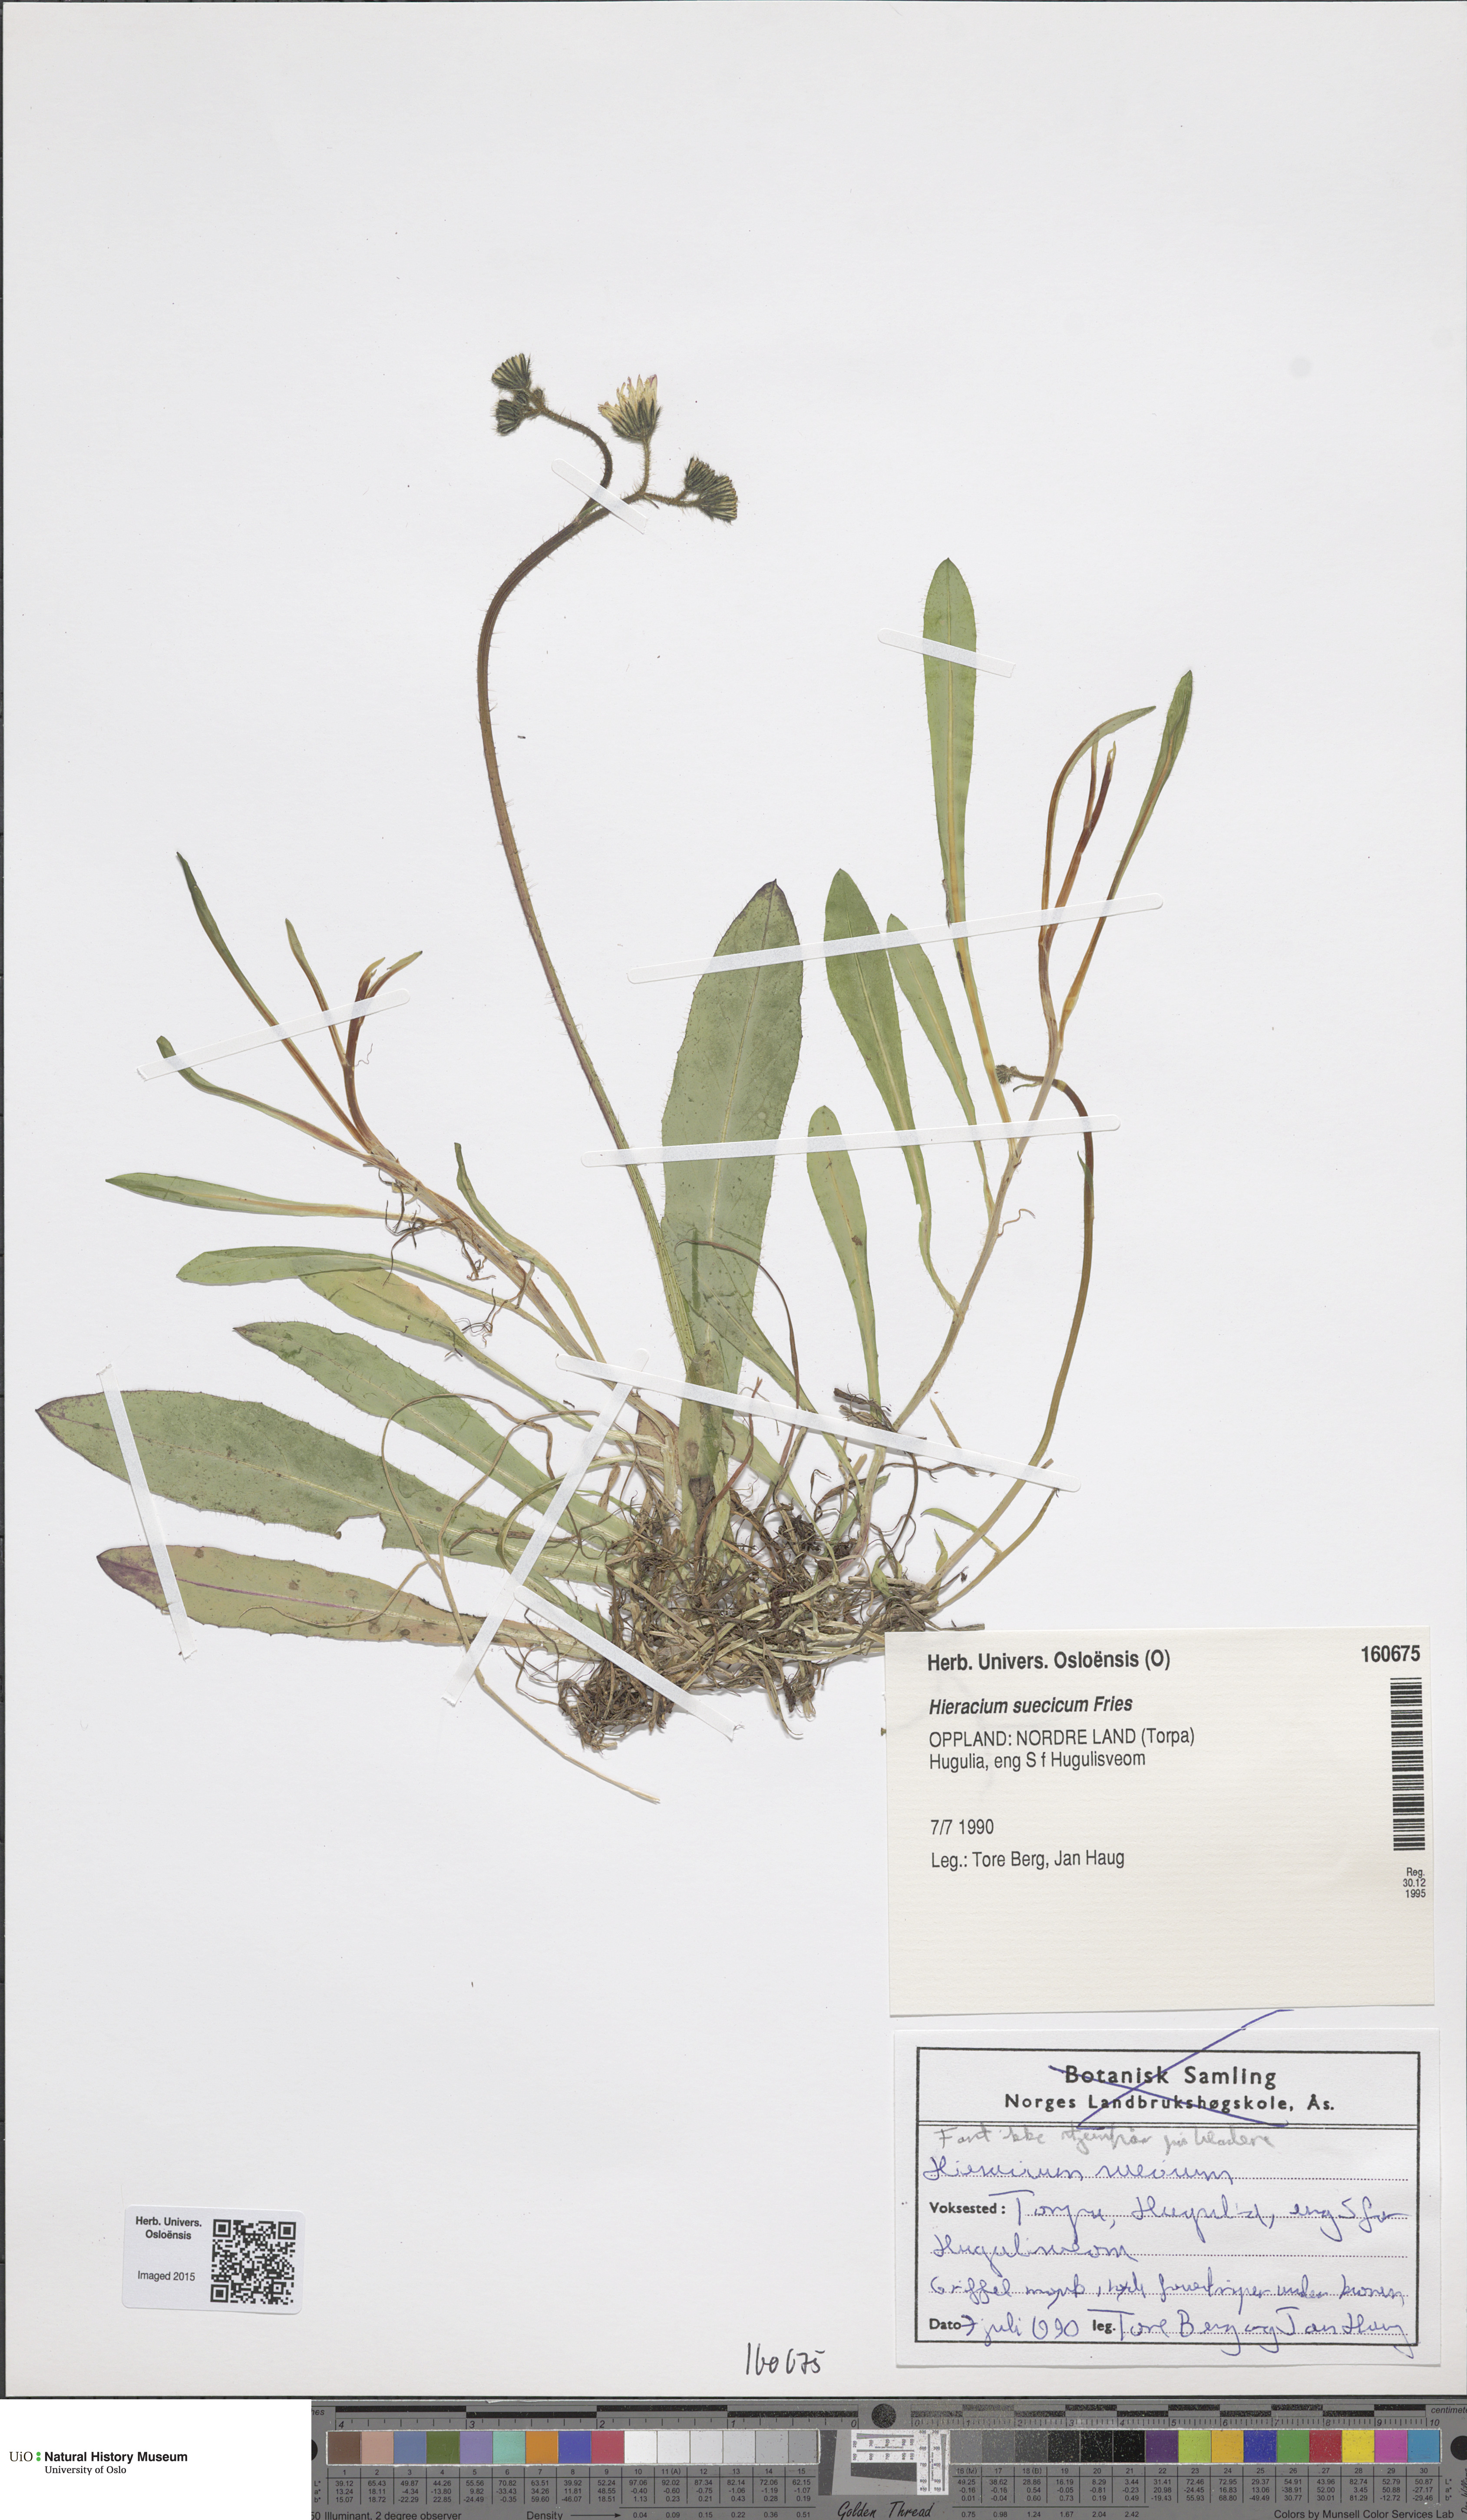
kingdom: Plantae
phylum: Tracheophyta
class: Magnoliopsida
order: Asterales
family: Asteraceae
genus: Pilosella
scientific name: Pilosella dubia
